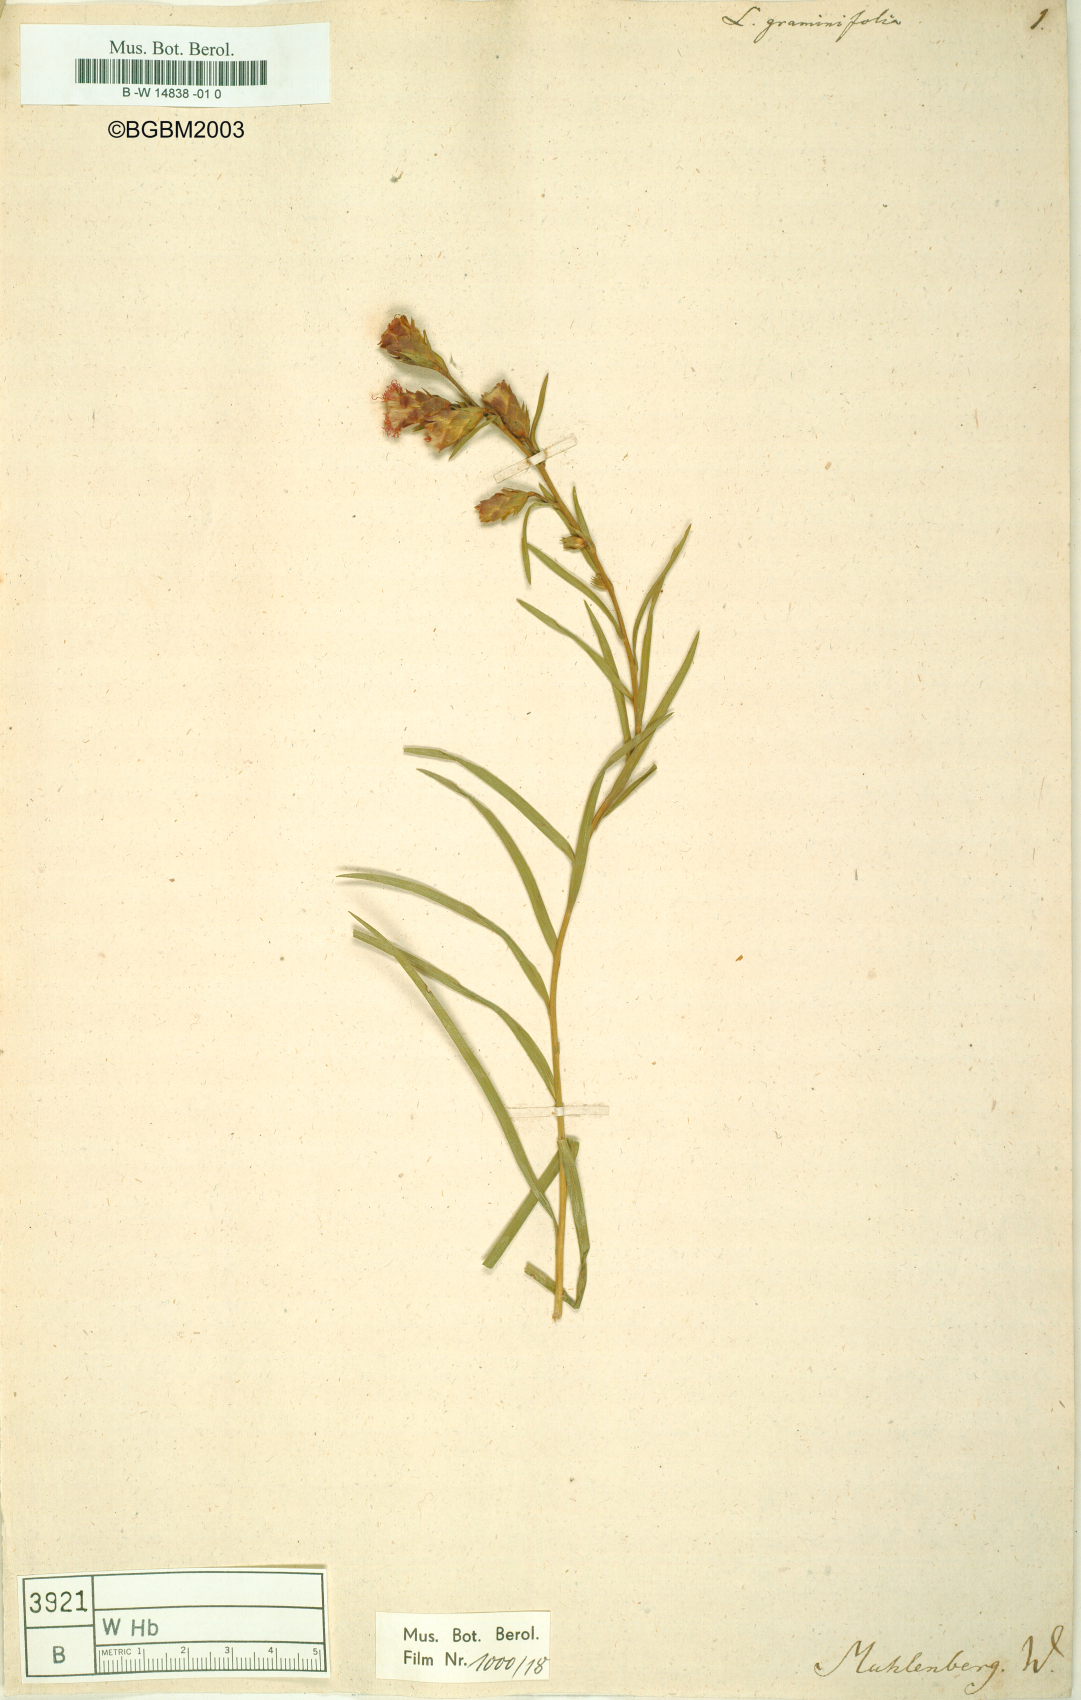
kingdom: Plantae
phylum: Tracheophyta
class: Magnoliopsida
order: Asterales
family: Asteraceae
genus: Liatris
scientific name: Liatris pilosa
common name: Grass-leaf gayfeather
